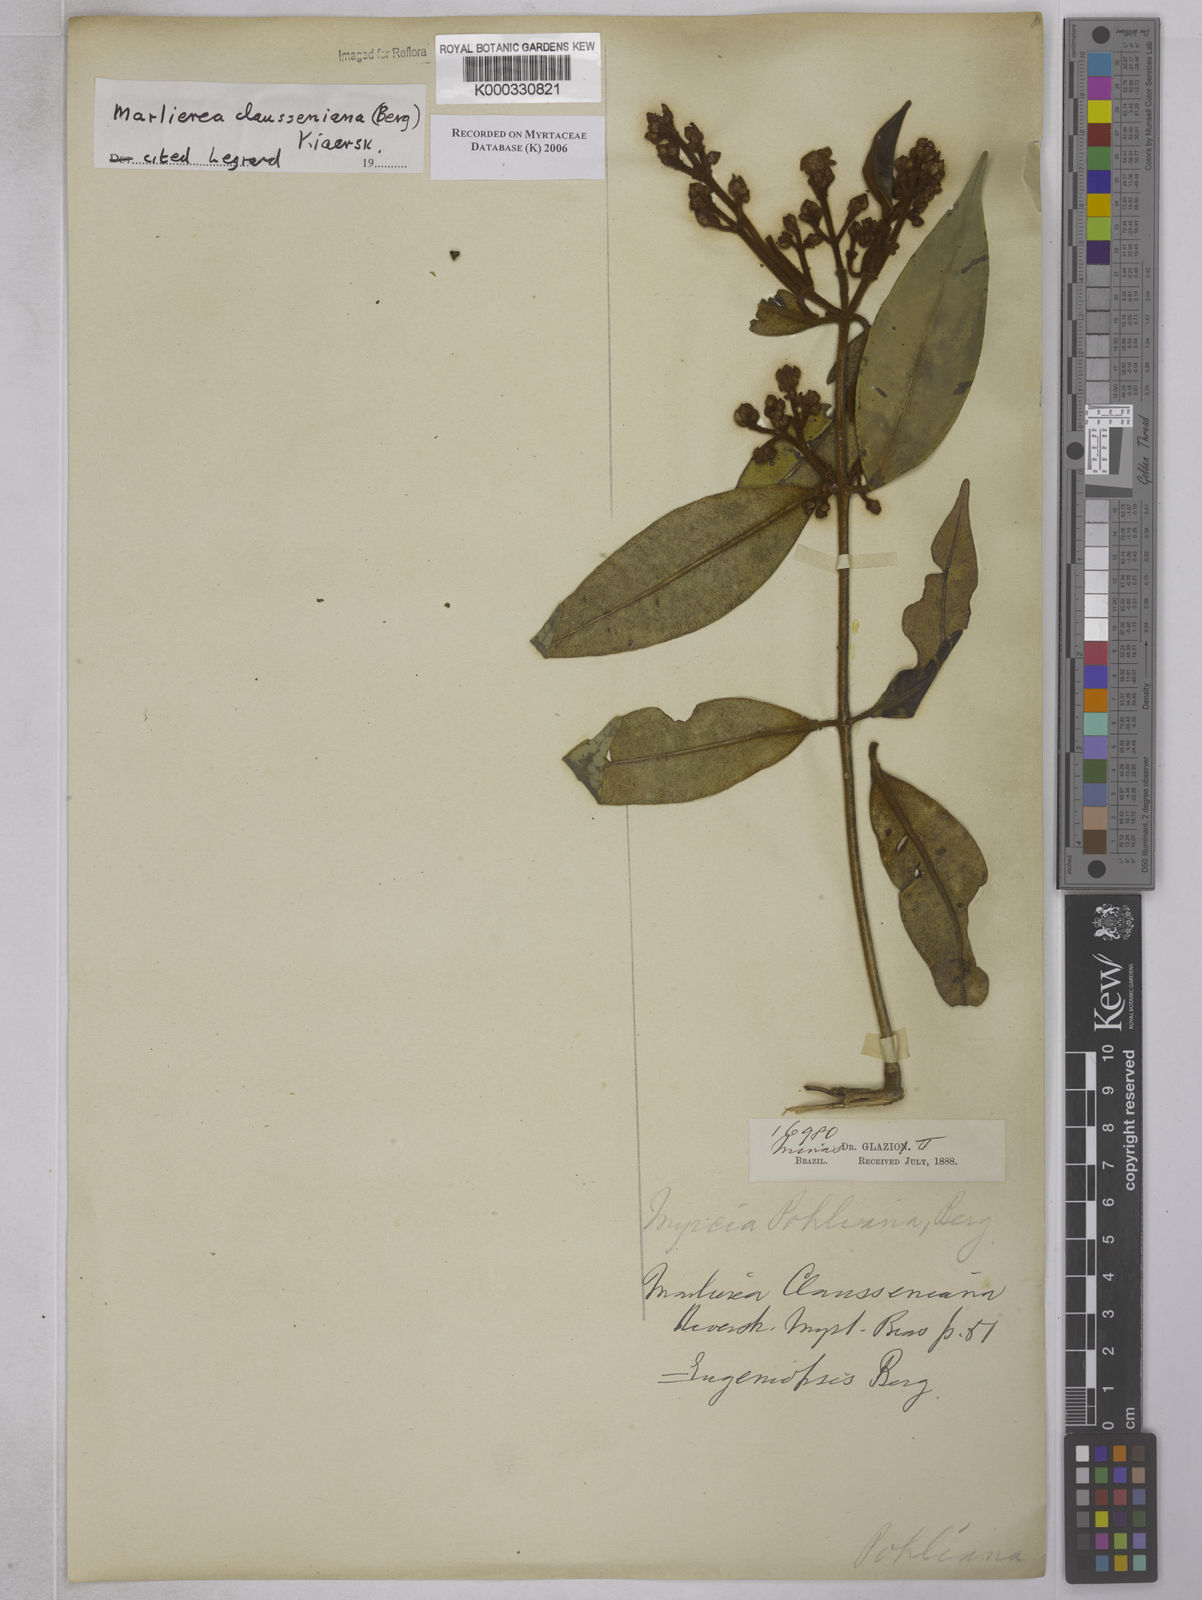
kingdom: Plantae
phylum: Tracheophyta
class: Magnoliopsida
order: Myrtales
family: Myrtaceae
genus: Marlierea
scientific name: Marlierea clausseniana
